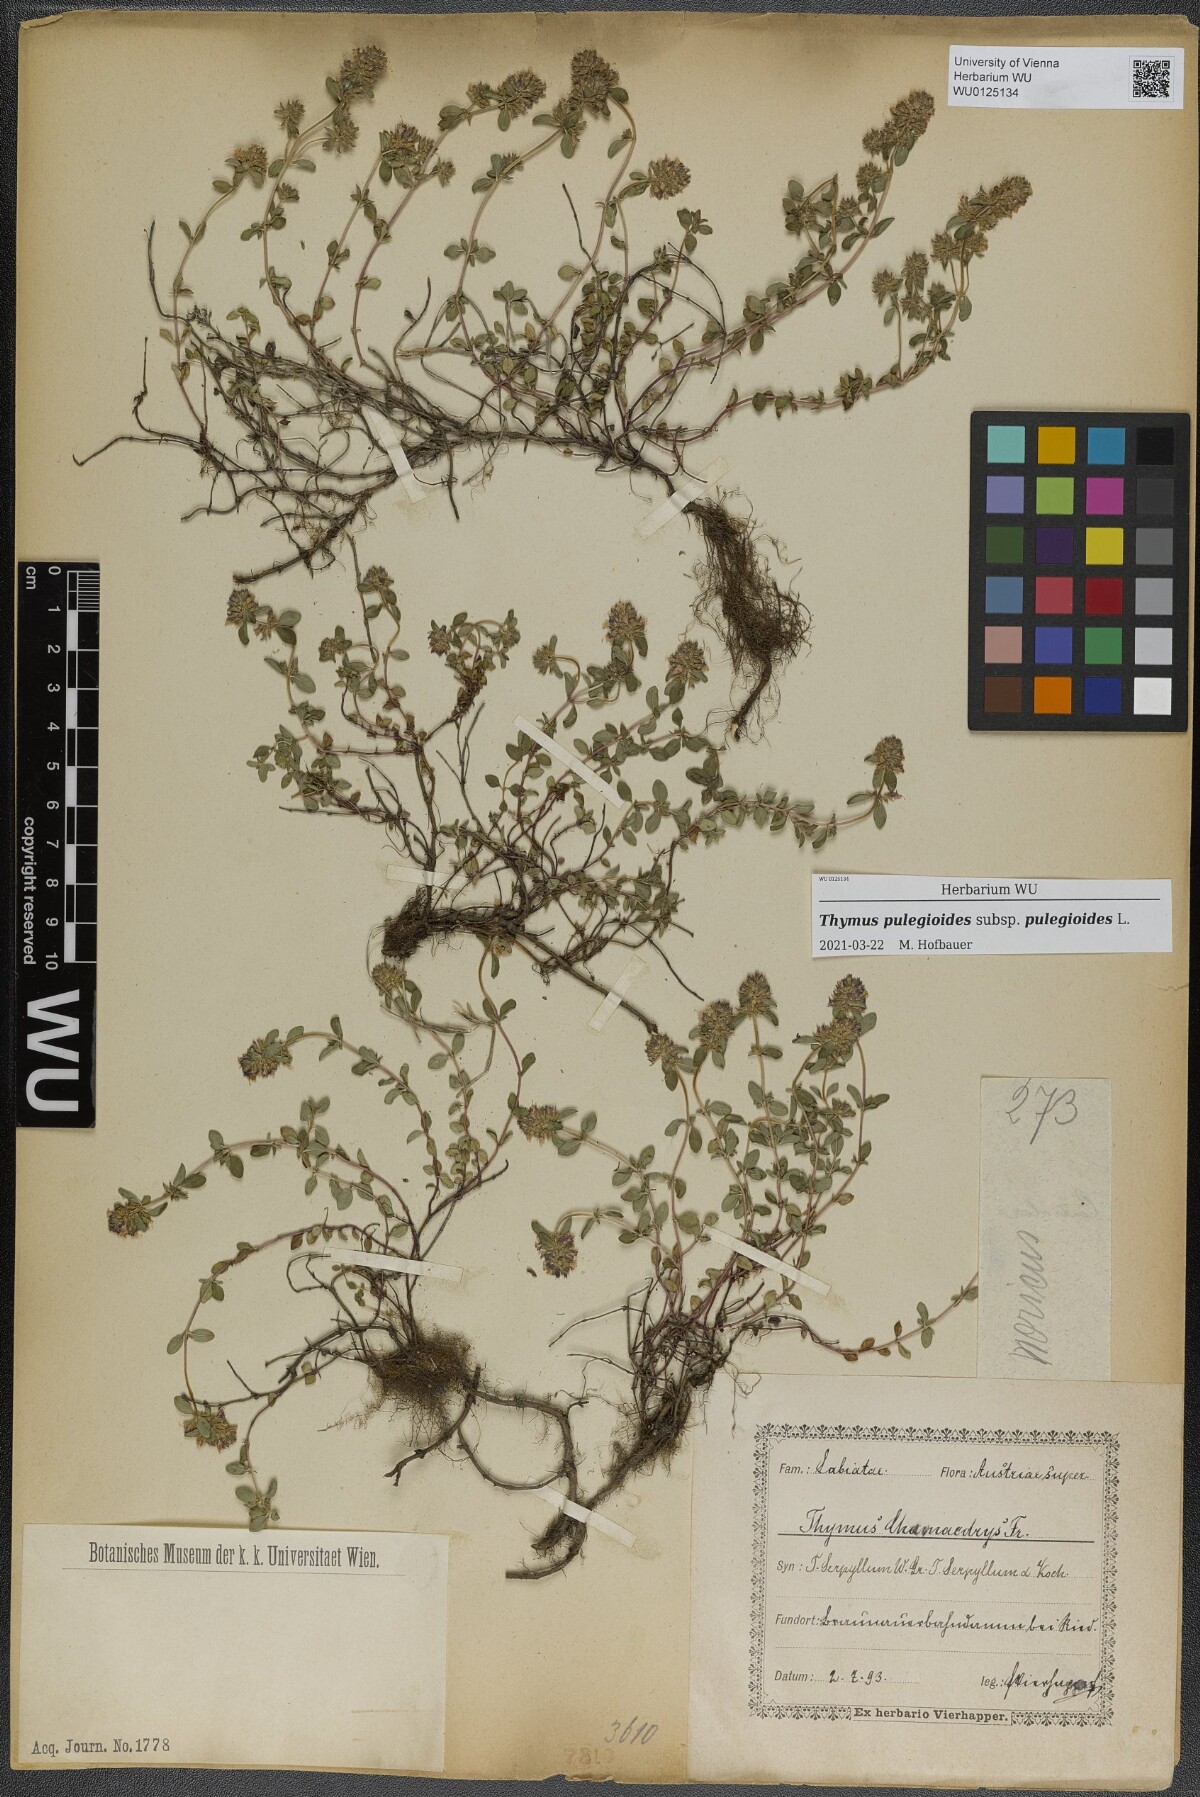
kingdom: Plantae
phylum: Tracheophyta
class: Magnoliopsida
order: Lamiales
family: Lamiaceae
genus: Thymus
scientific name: Thymus pulegioides
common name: Large thyme
